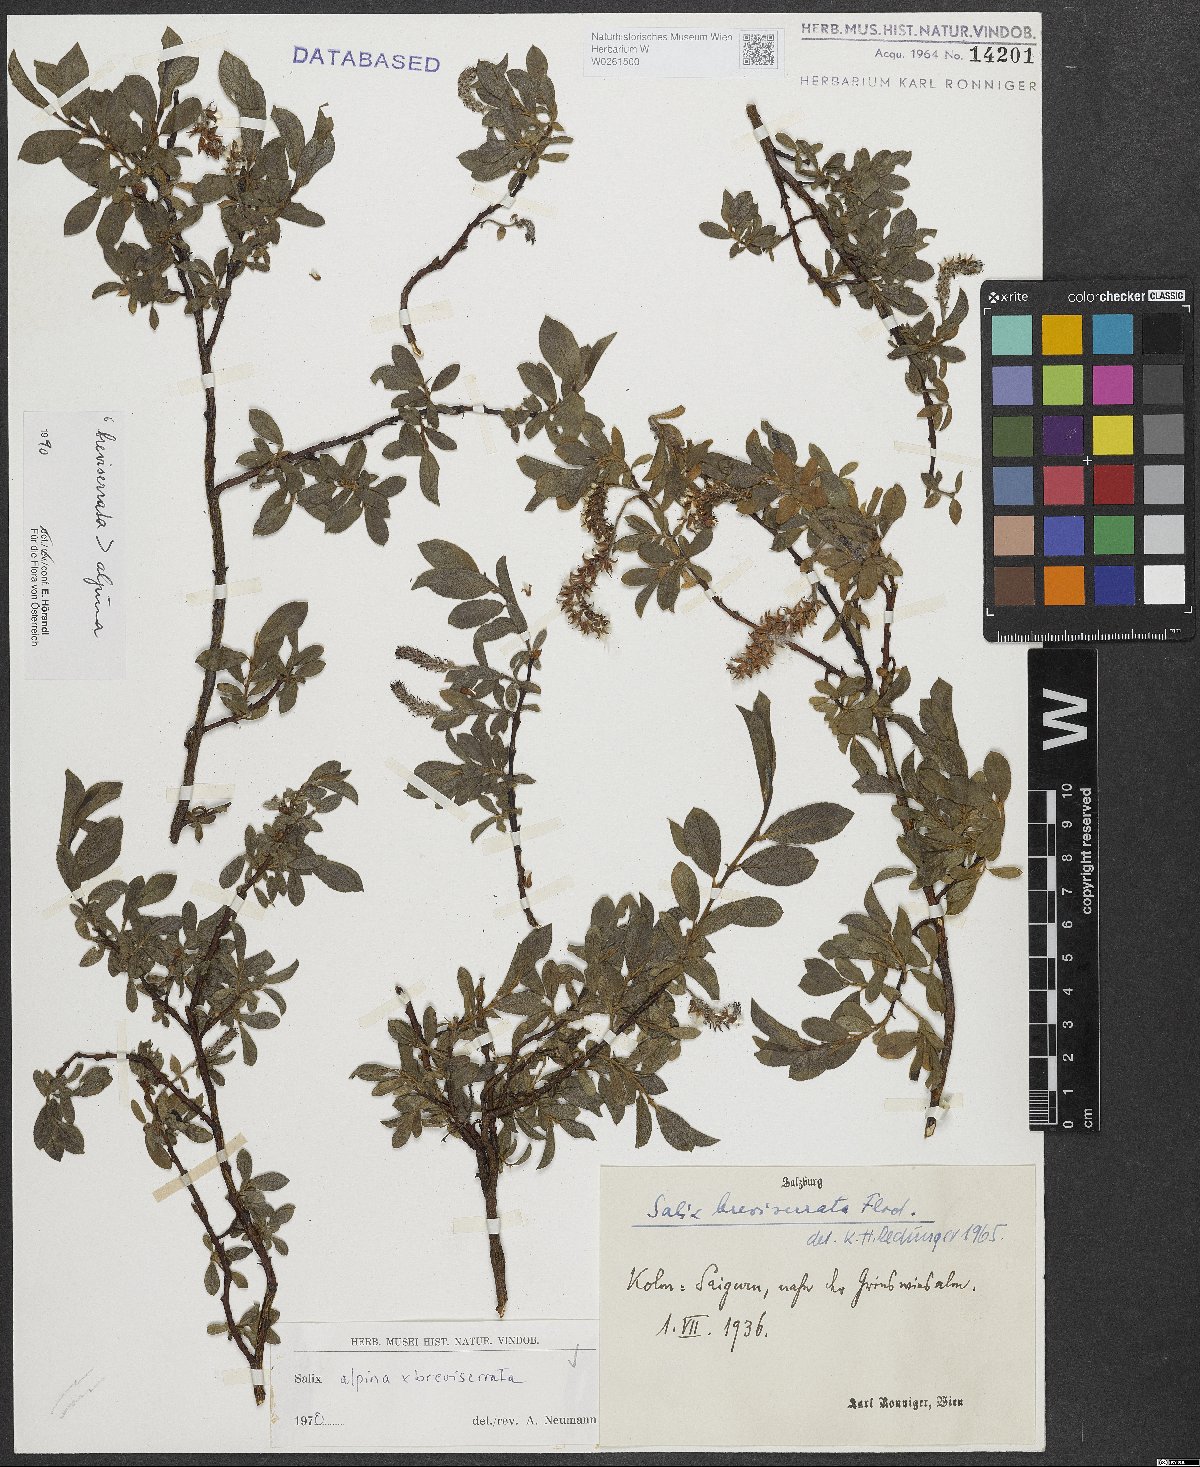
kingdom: Plantae
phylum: Tracheophyta
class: Magnoliopsida
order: Malpighiales
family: Salicaceae
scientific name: Salicaceae
